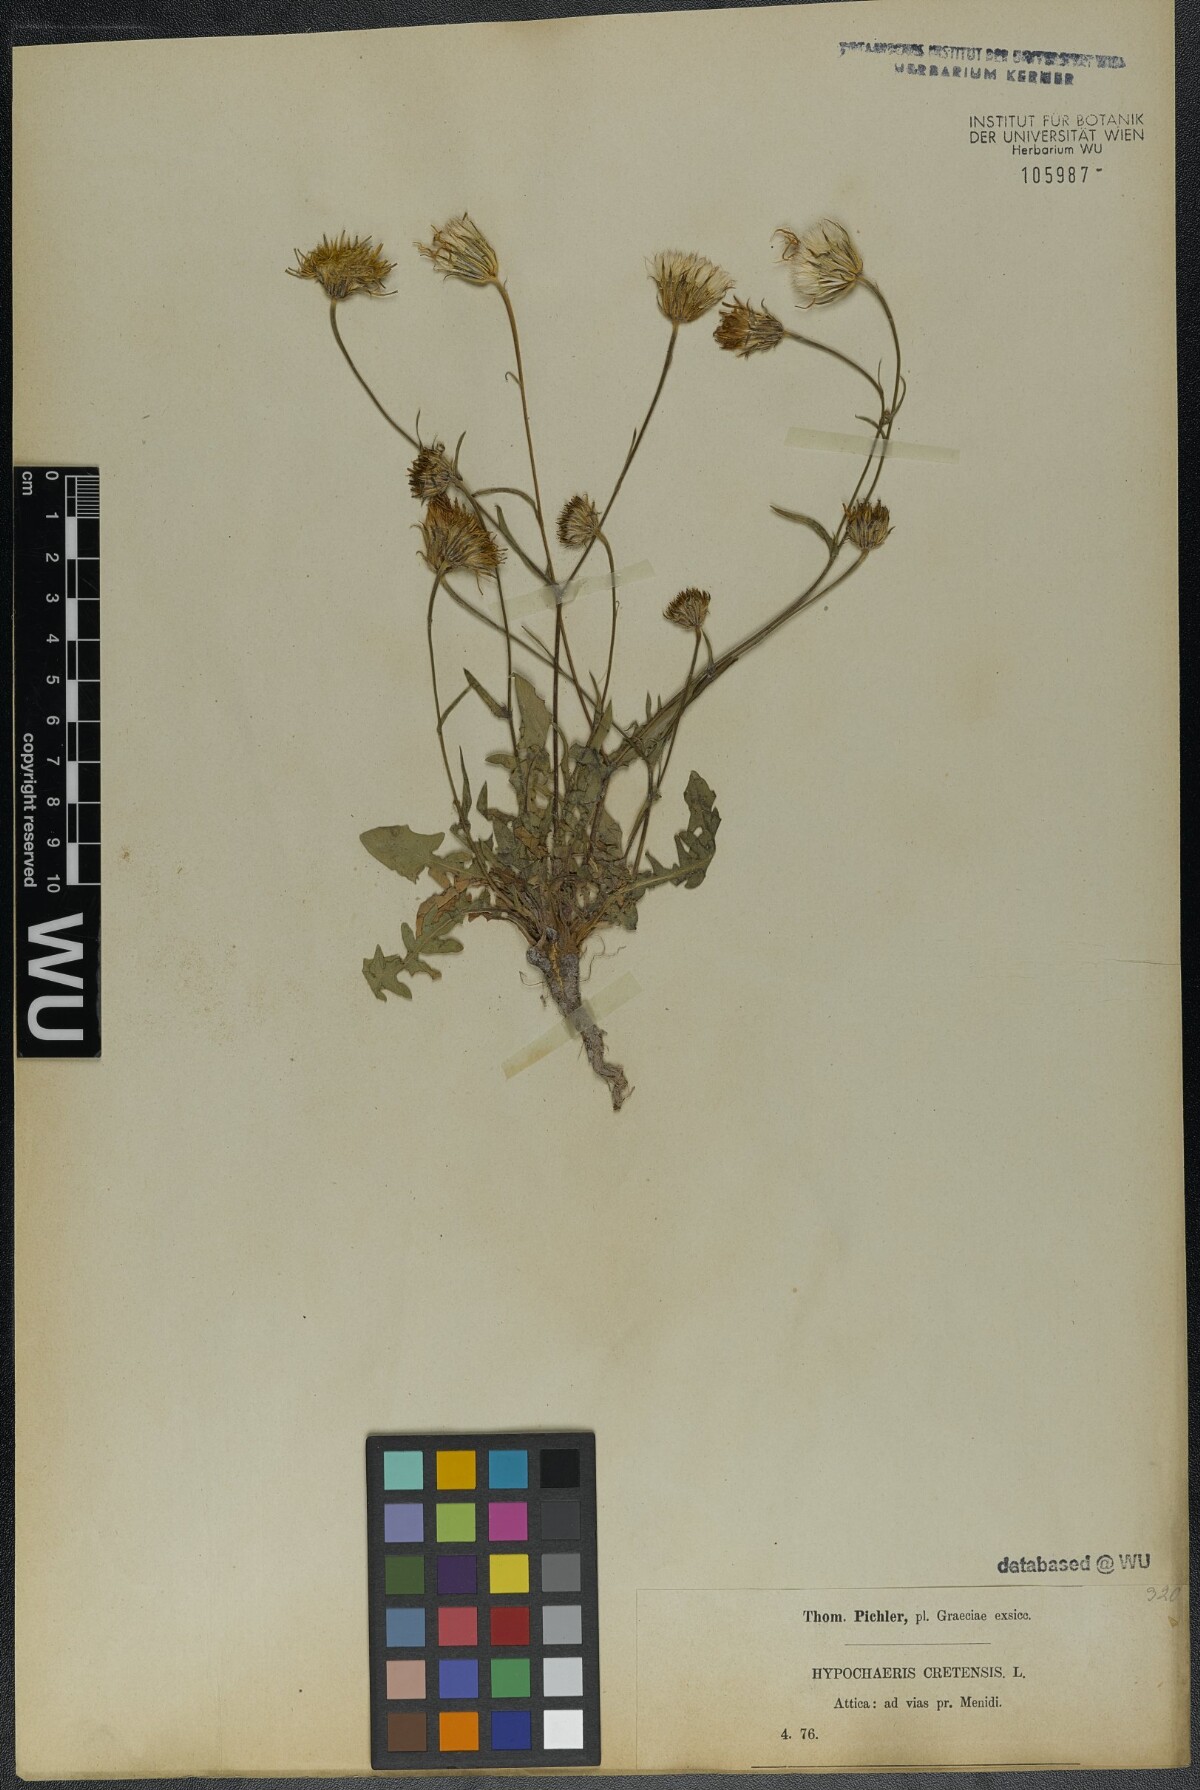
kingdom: Plantae
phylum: Tracheophyta
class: Magnoliopsida
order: Asterales
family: Asteraceae
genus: Hypochaeris
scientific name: Hypochaeris cretensis
